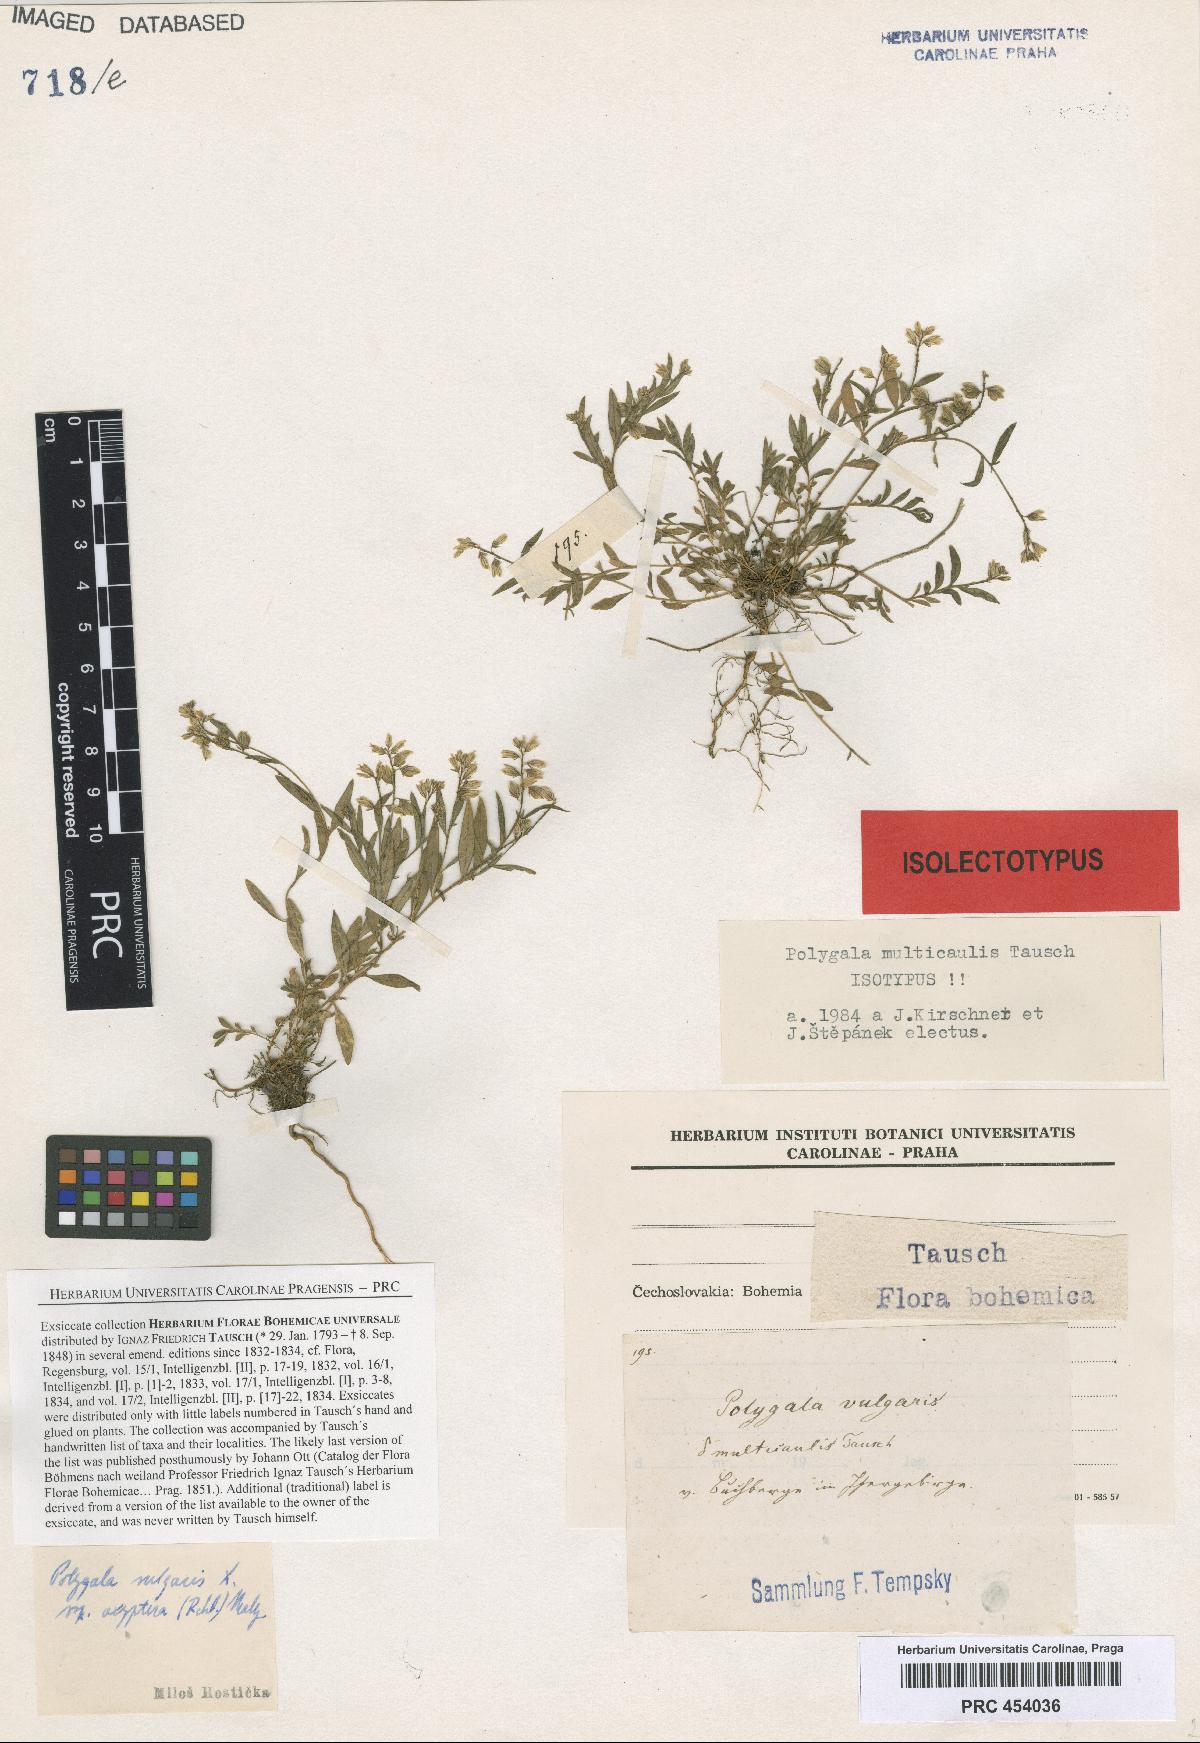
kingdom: Plantae
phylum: Tracheophyta
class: Magnoliopsida
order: Fabales
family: Polygalaceae
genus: Polygala
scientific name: Polygala vulgaris
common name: Common milkwort
